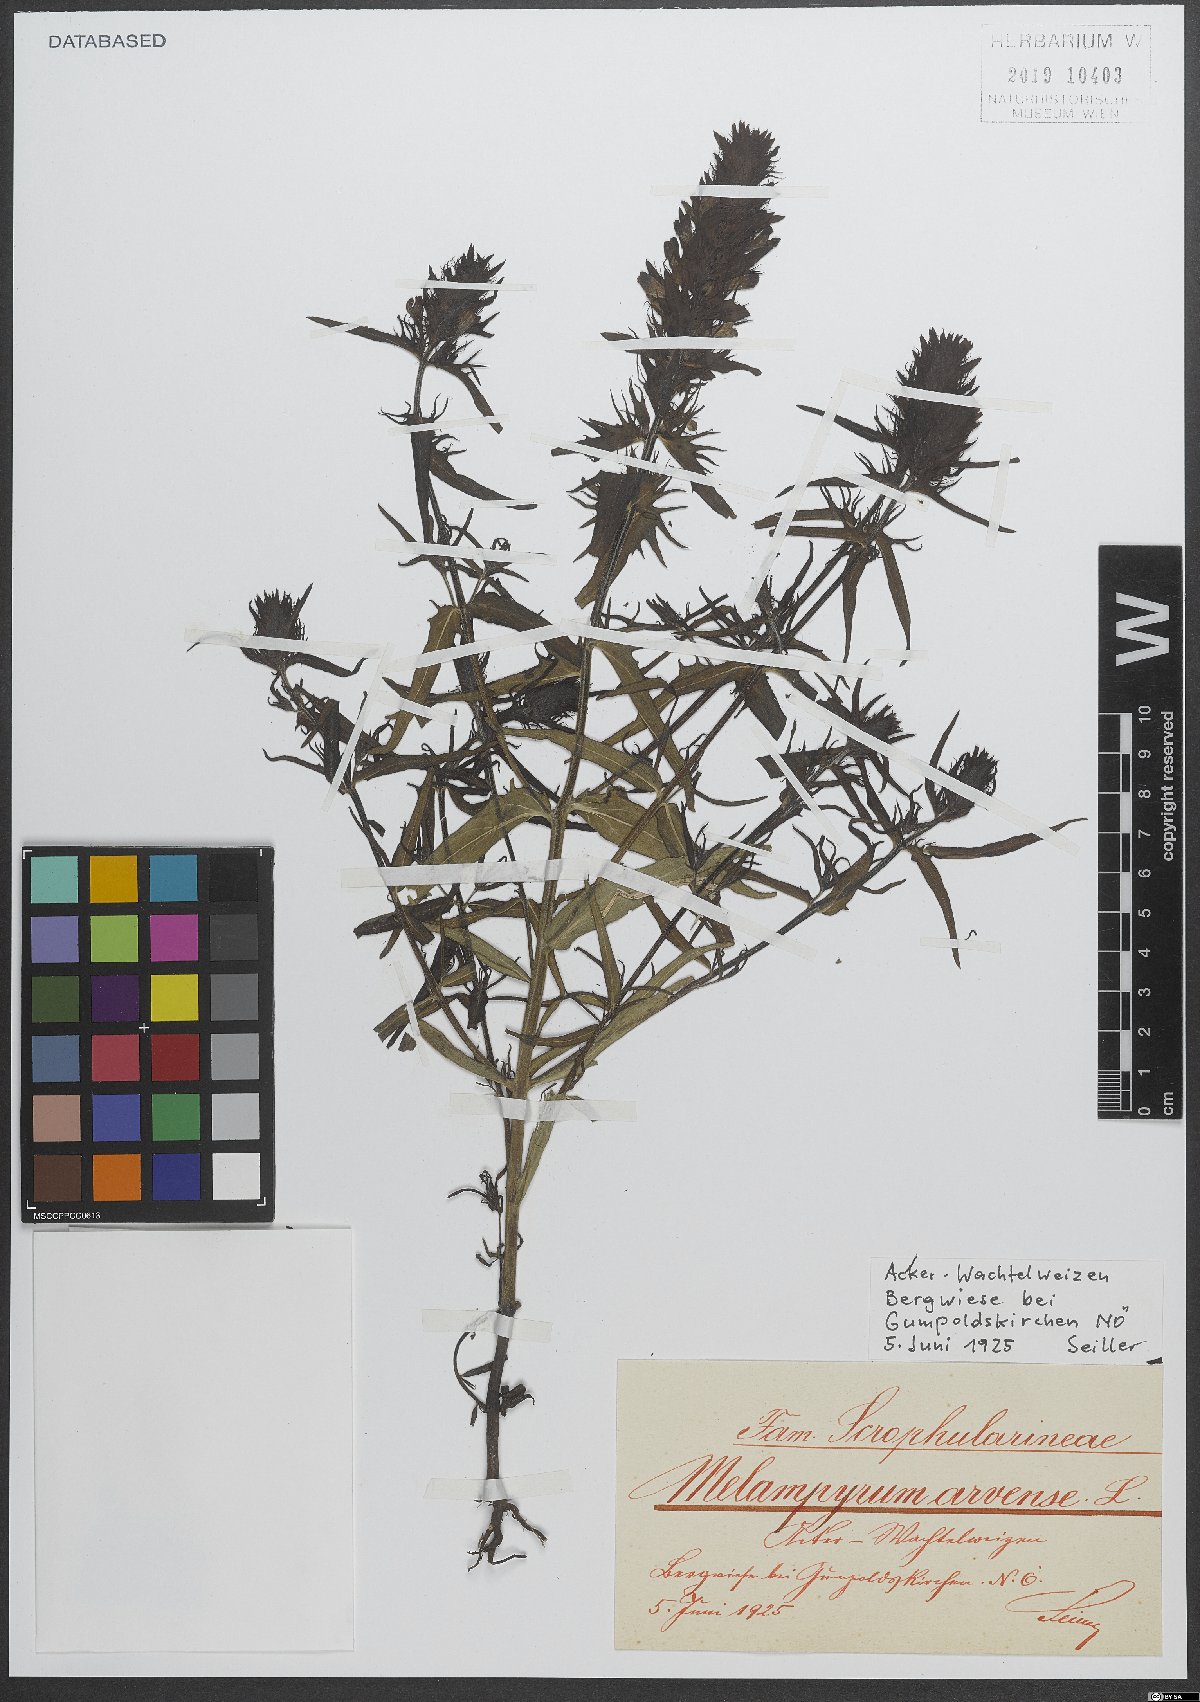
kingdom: Plantae
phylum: Tracheophyta
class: Magnoliopsida
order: Lamiales
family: Orobanchaceae
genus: Melampyrum
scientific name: Melampyrum arvense
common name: Field cow-wheat
